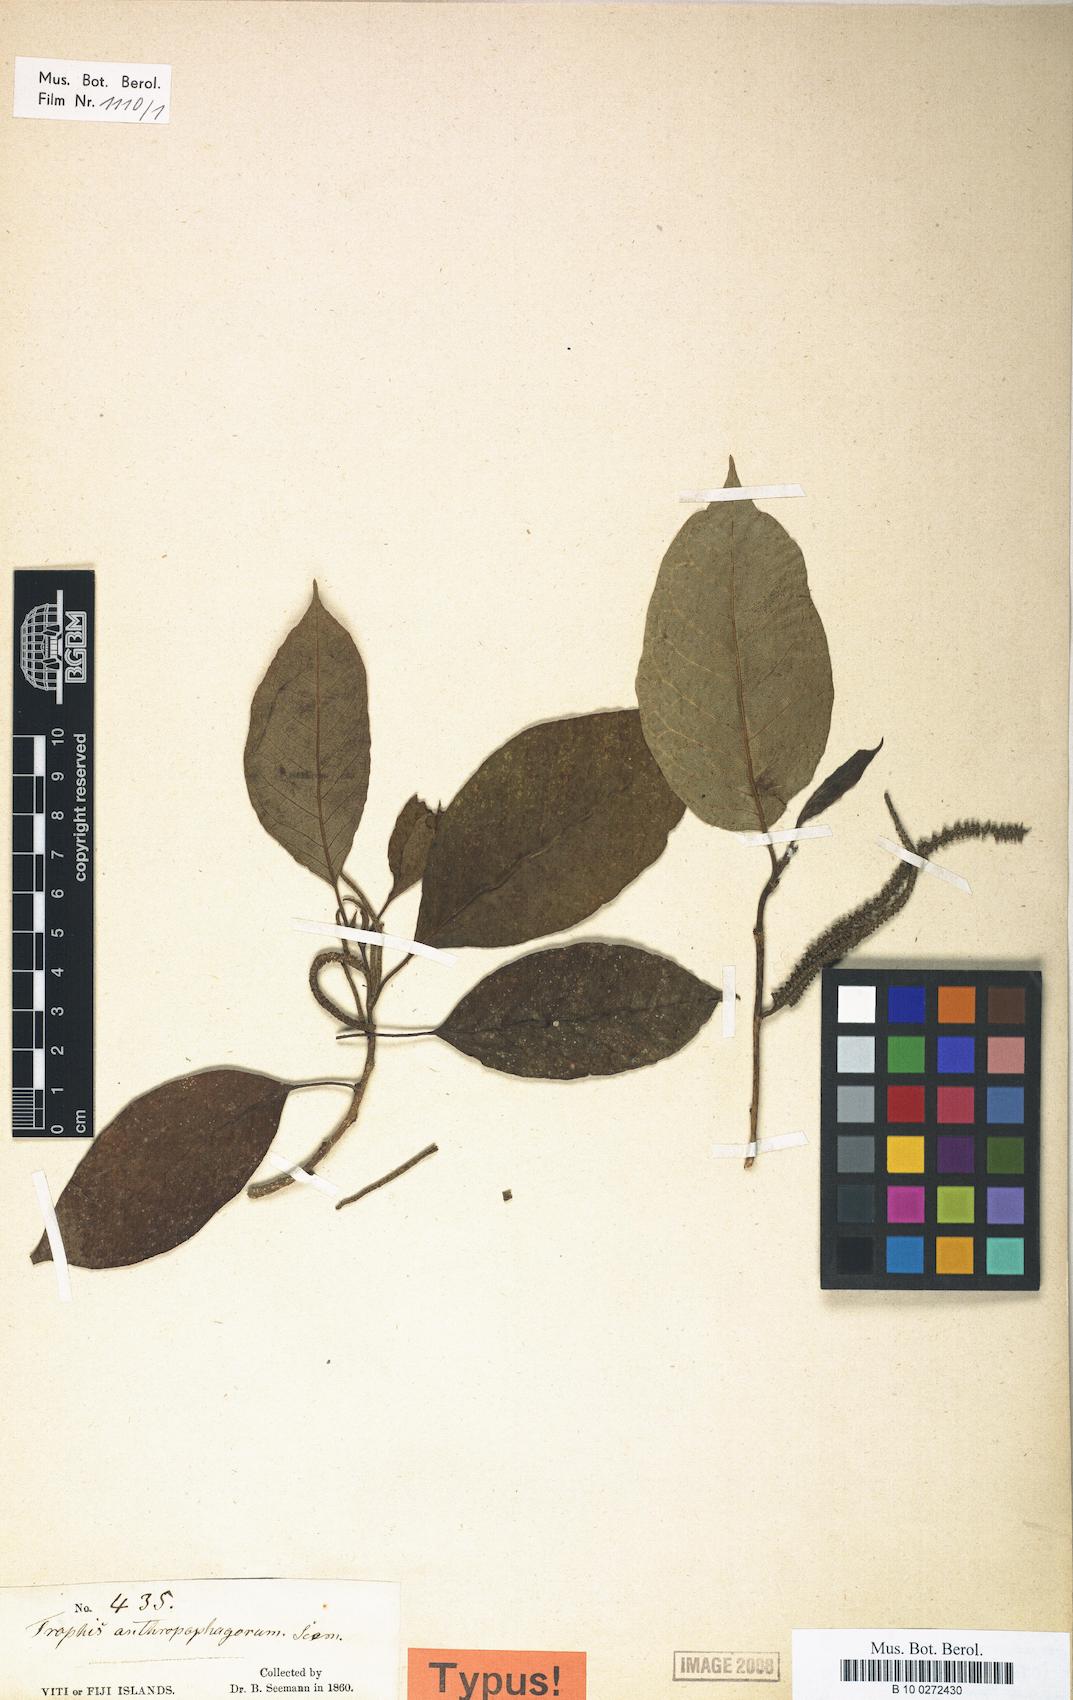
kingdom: Plantae
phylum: Tracheophyta
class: Magnoliopsida
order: Rosales
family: Moraceae
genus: Paratrophis
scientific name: Paratrophis anthropophagorum
